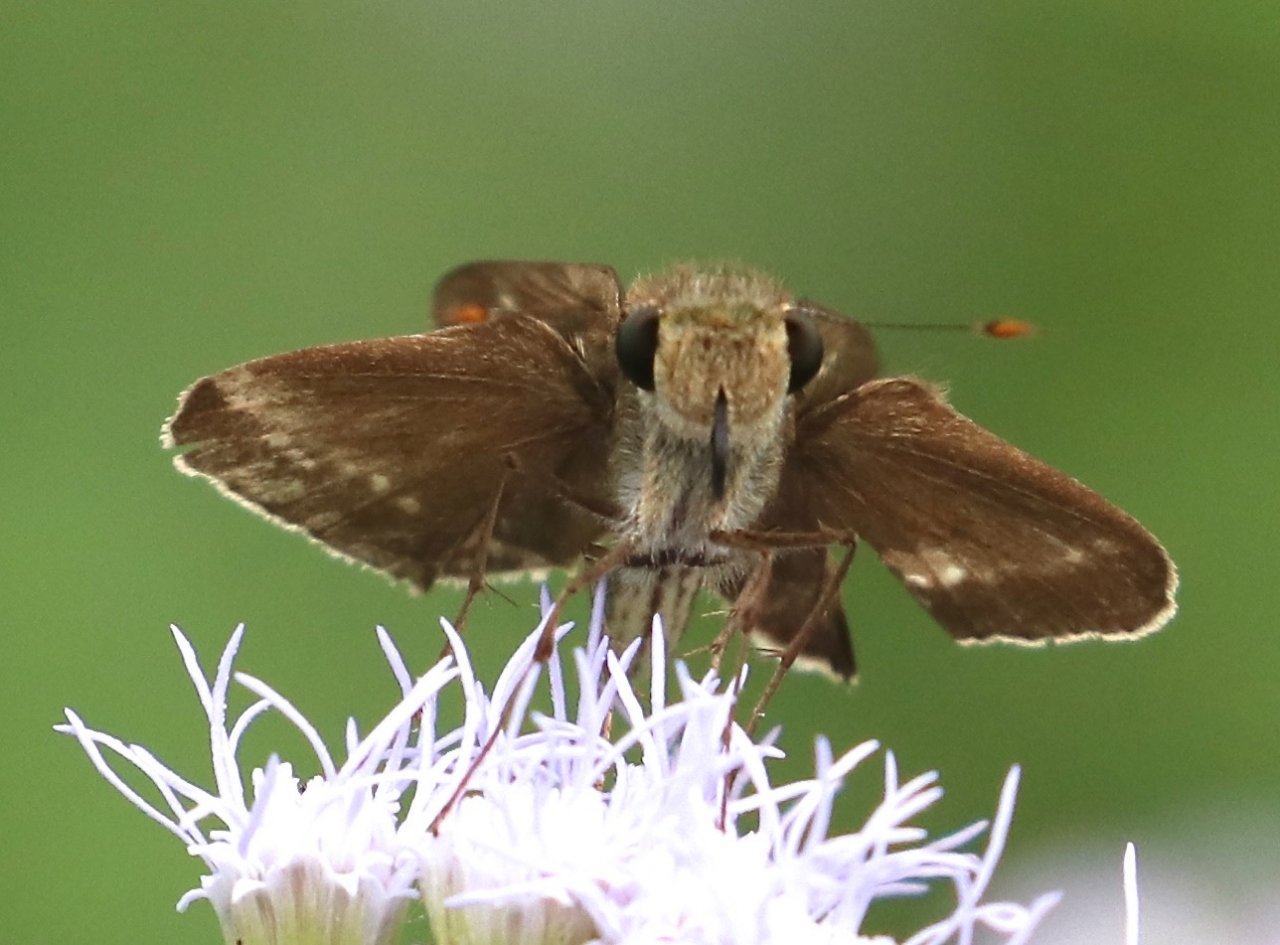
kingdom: Animalia
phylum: Arthropoda
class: Insecta
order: Lepidoptera
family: Hesperiidae
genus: Turesis
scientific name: Turesis lucas
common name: Purple-washed Skipper
